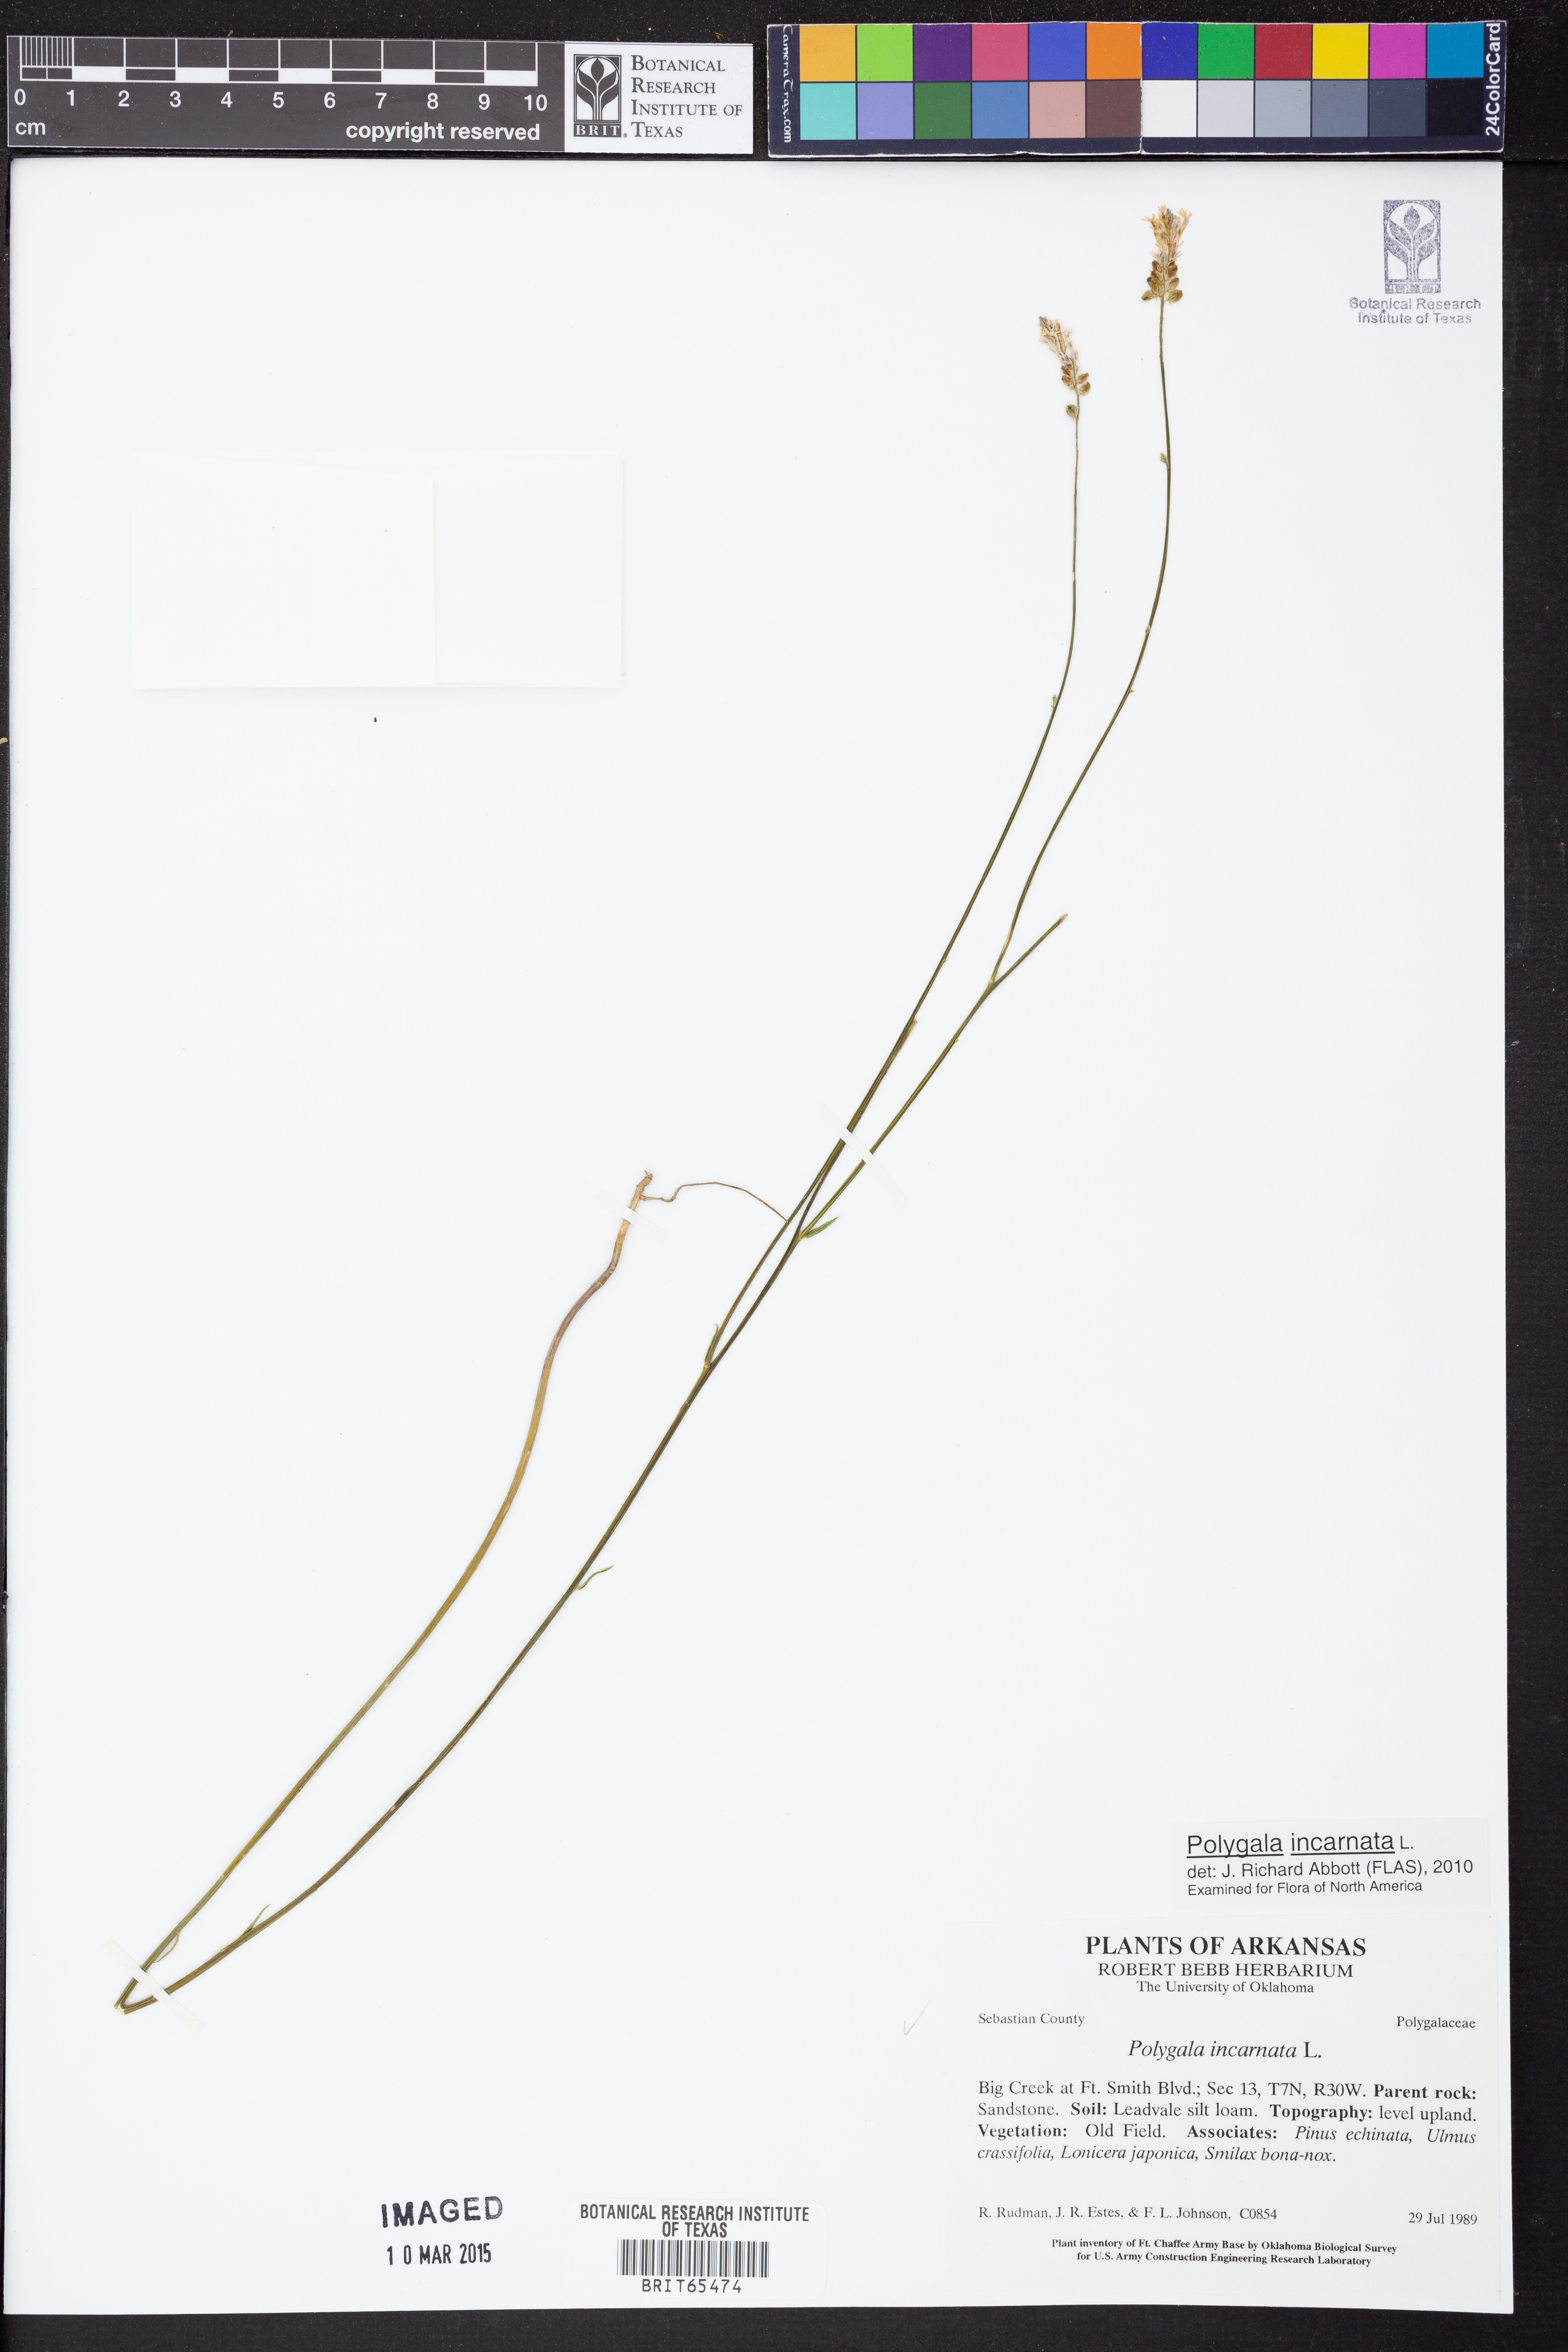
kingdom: Plantae
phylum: Tracheophyta
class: Magnoliopsida
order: Fabales
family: Polygalaceae
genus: Polygala
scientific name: Polygala incarnata
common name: Pink milkwort
